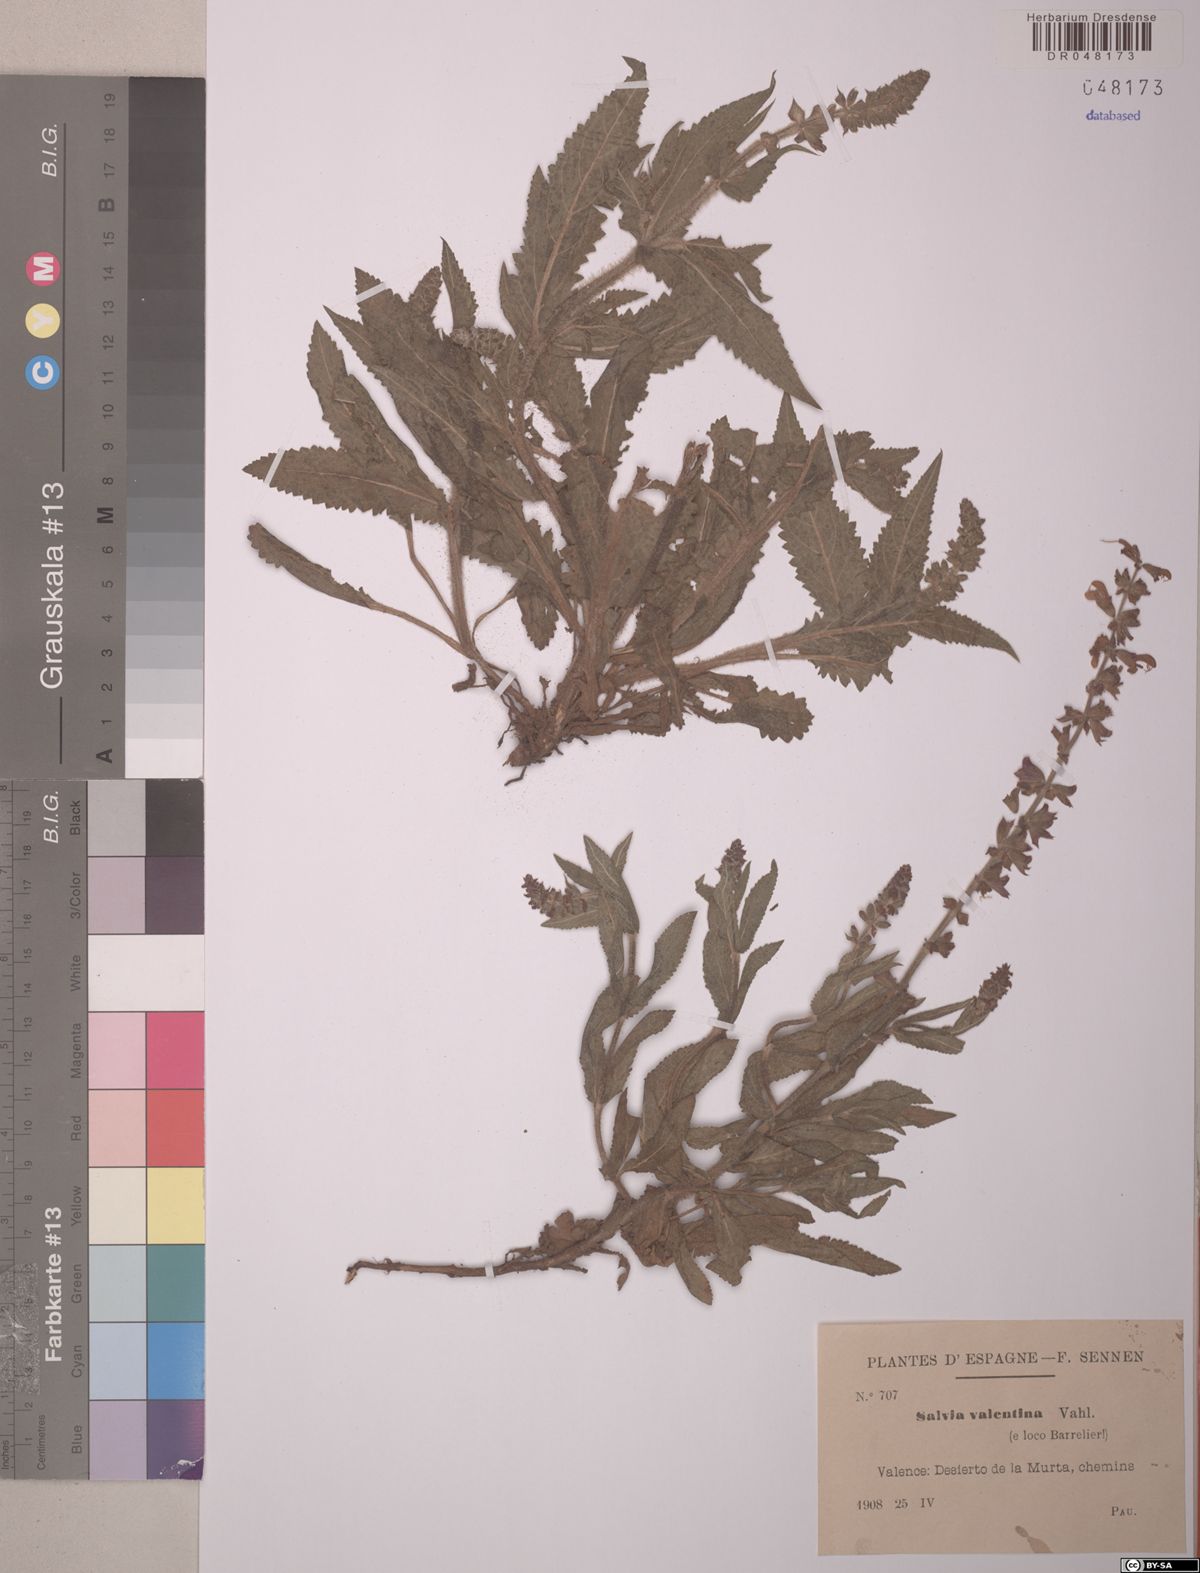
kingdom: Plantae
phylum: Tracheophyta
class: Magnoliopsida
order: Lamiales
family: Lamiaceae
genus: Salvia
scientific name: Salvia valentina
